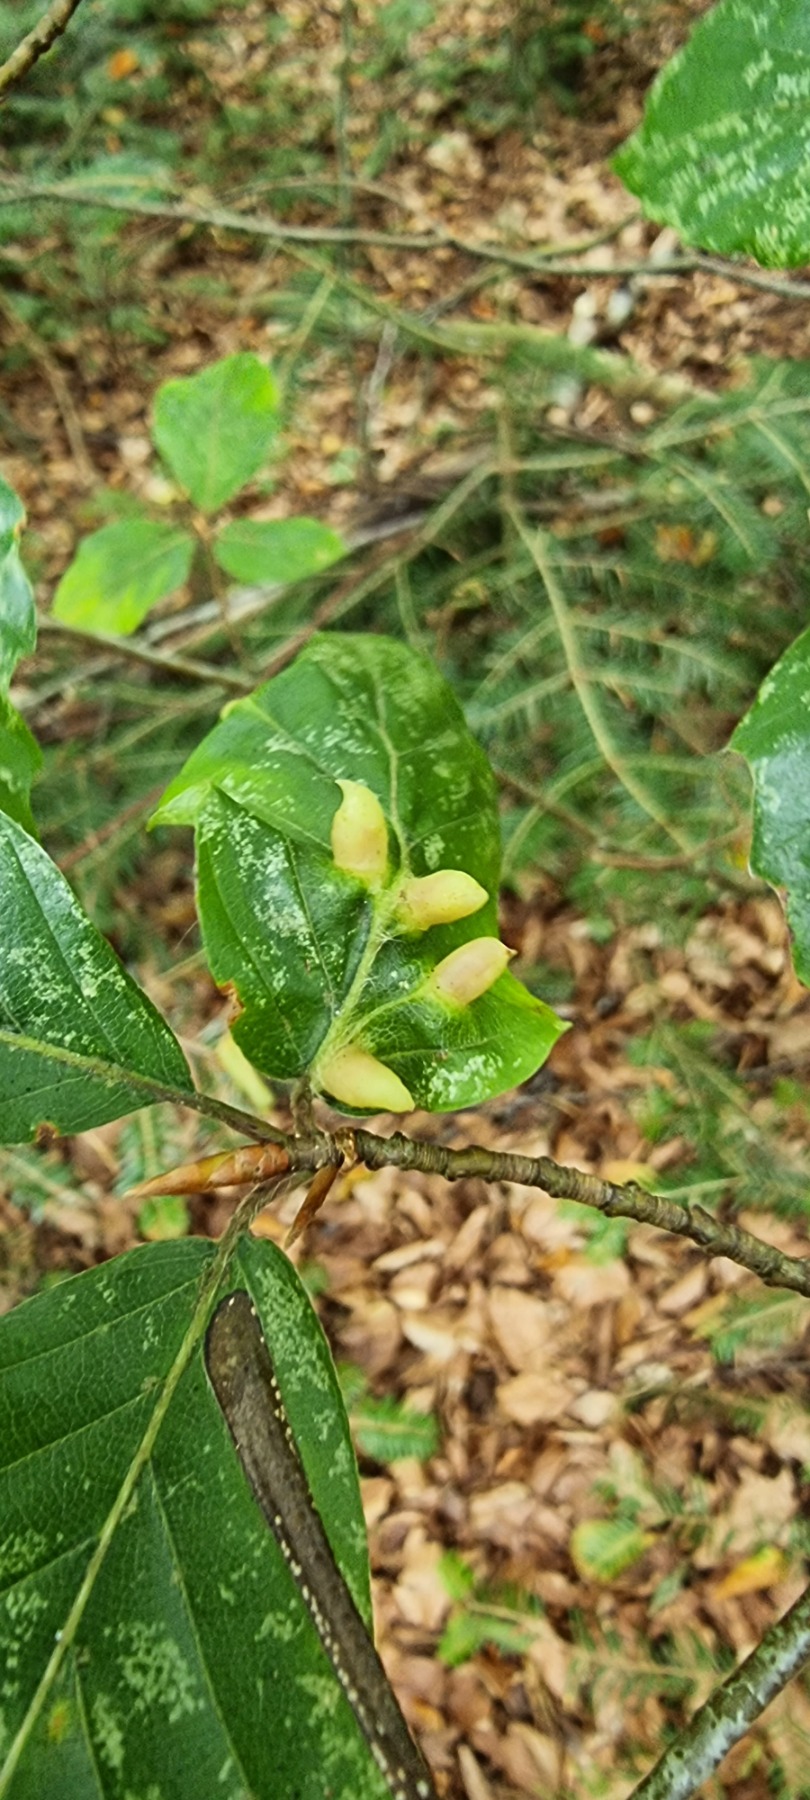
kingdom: Animalia
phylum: Arthropoda
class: Insecta
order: Diptera
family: Cecidomyiidae
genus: Mikiola
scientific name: Mikiola fagi
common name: Bøgegalmyg
